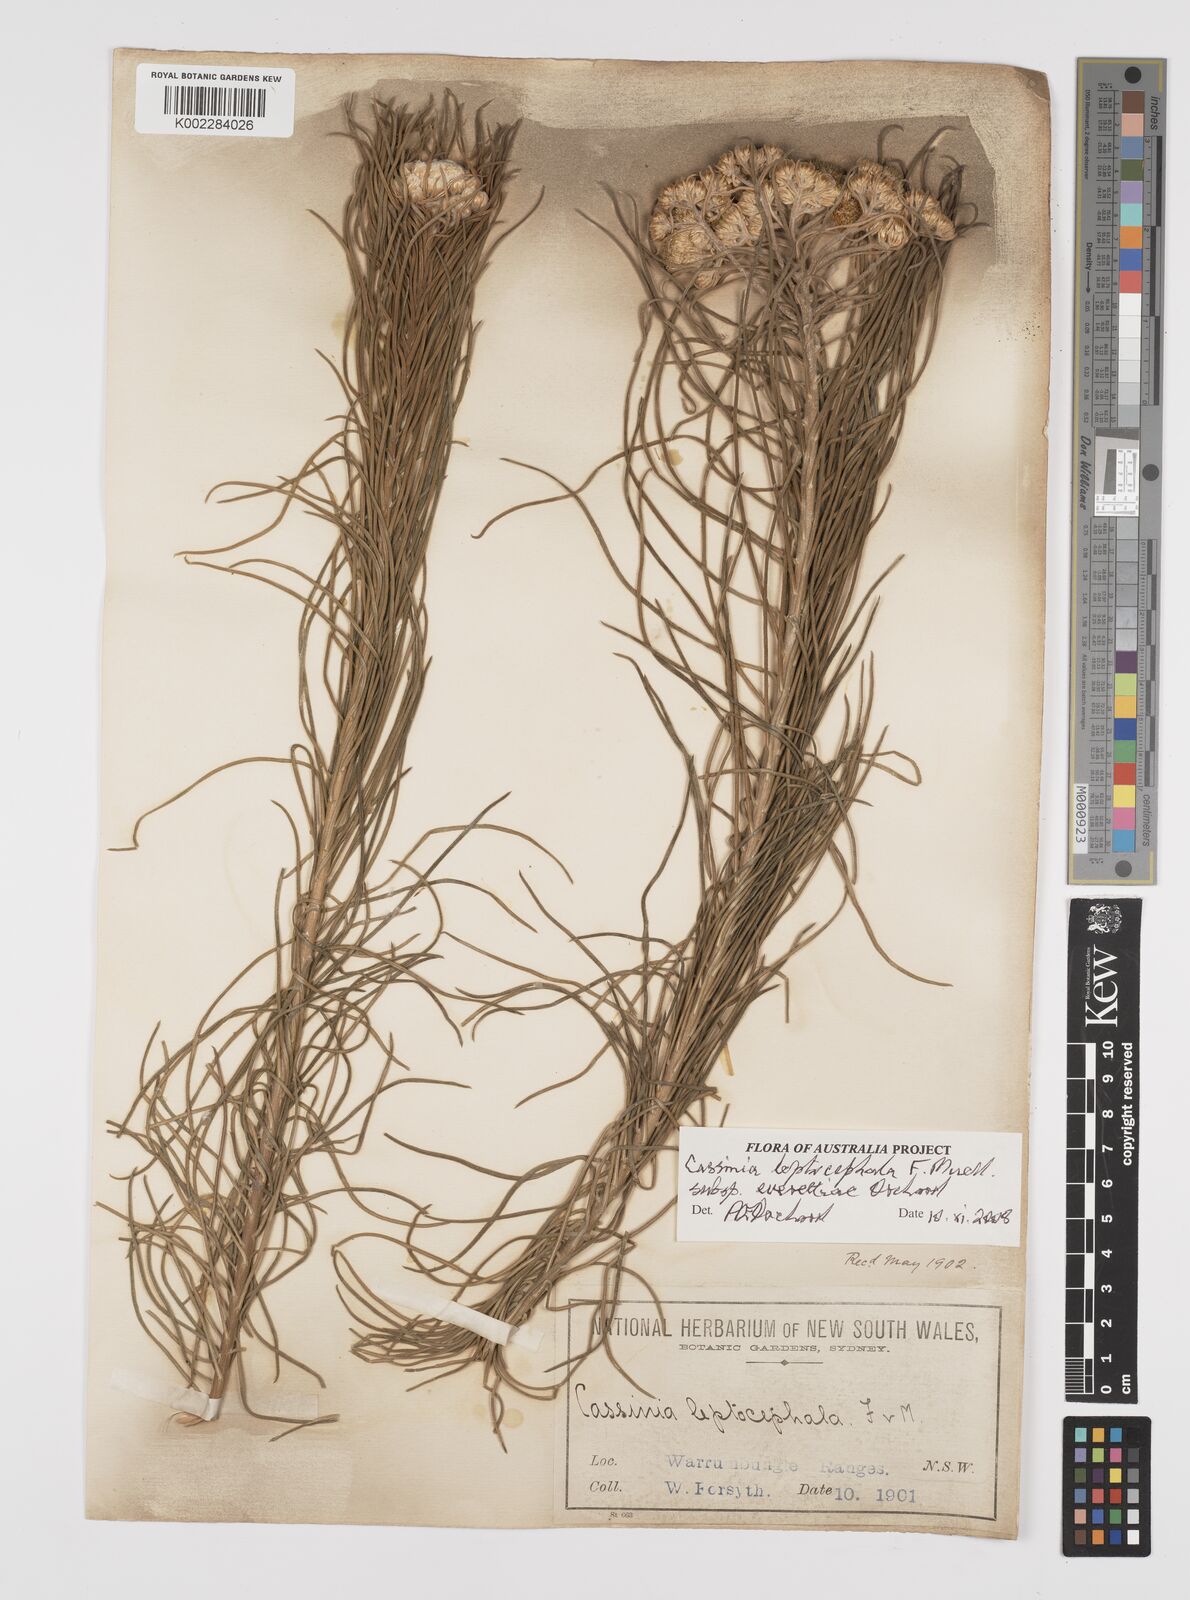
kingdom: Plantae
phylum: Tracheophyta
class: Magnoliopsida
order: Asterales
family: Asteraceae
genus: Cassinia
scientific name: Cassinia leptocephala
